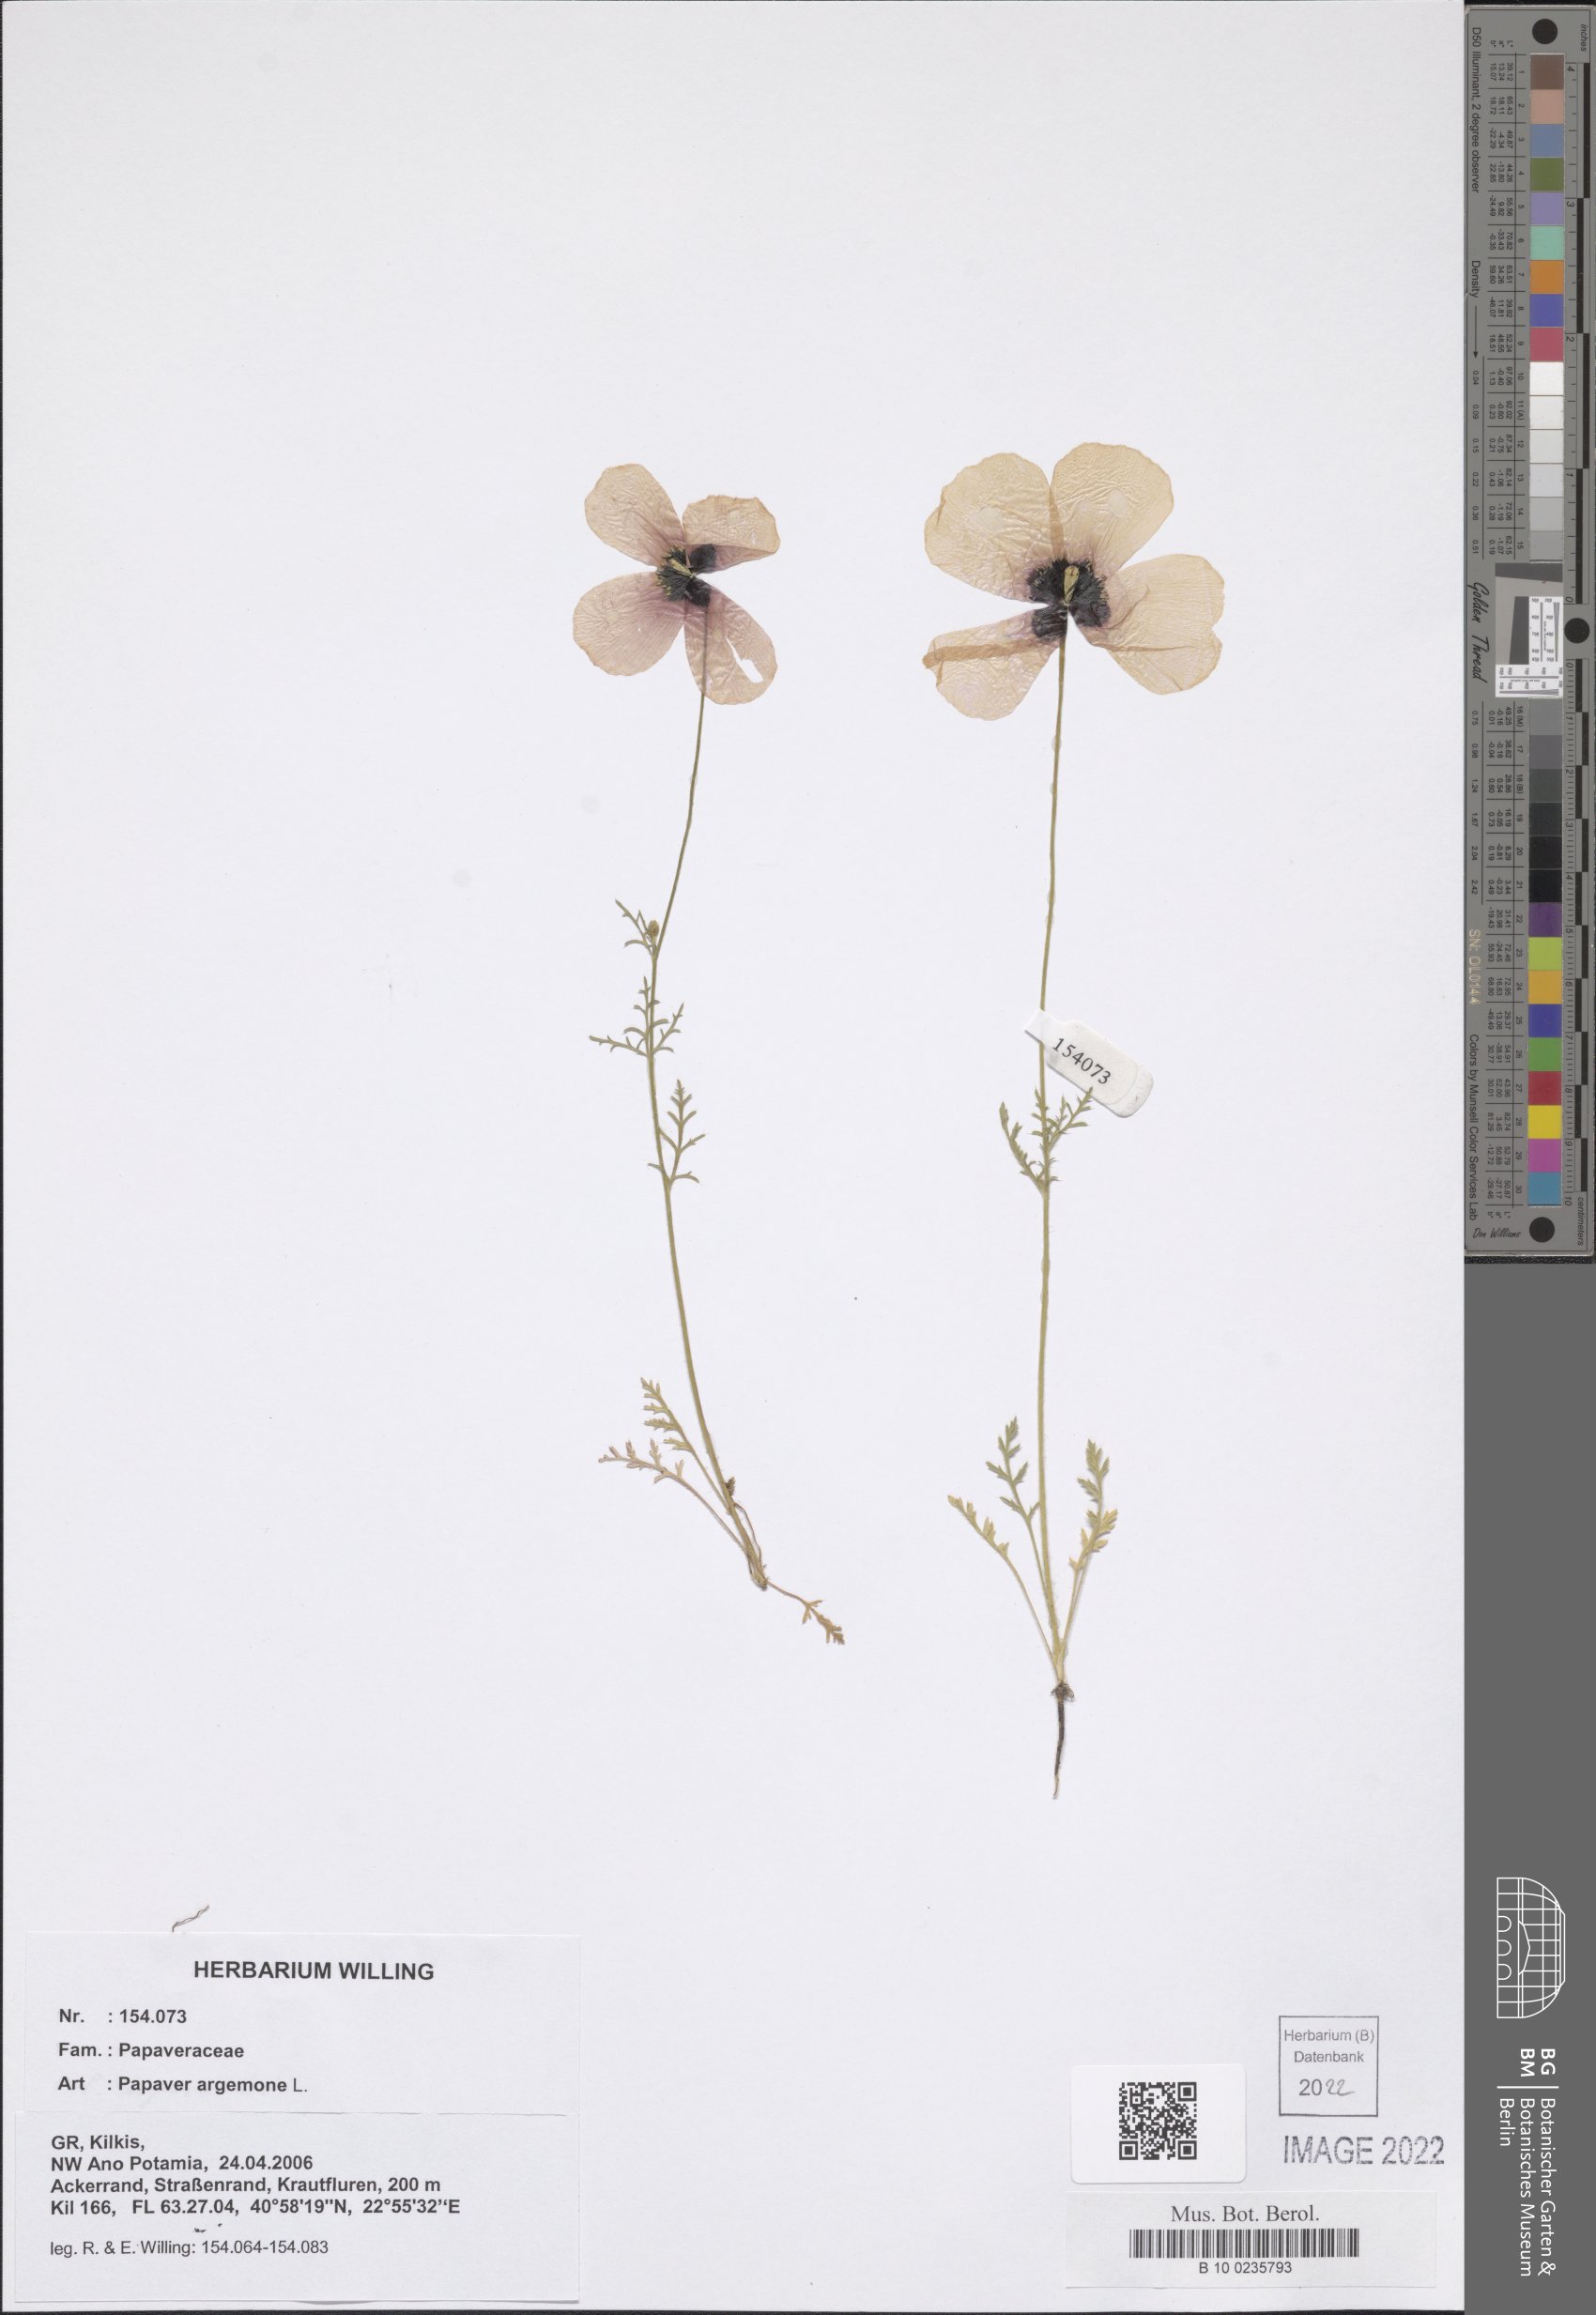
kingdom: Plantae
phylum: Tracheophyta
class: Magnoliopsida
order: Ranunculales
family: Papaveraceae
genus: Roemeria
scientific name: Roemeria argemone
